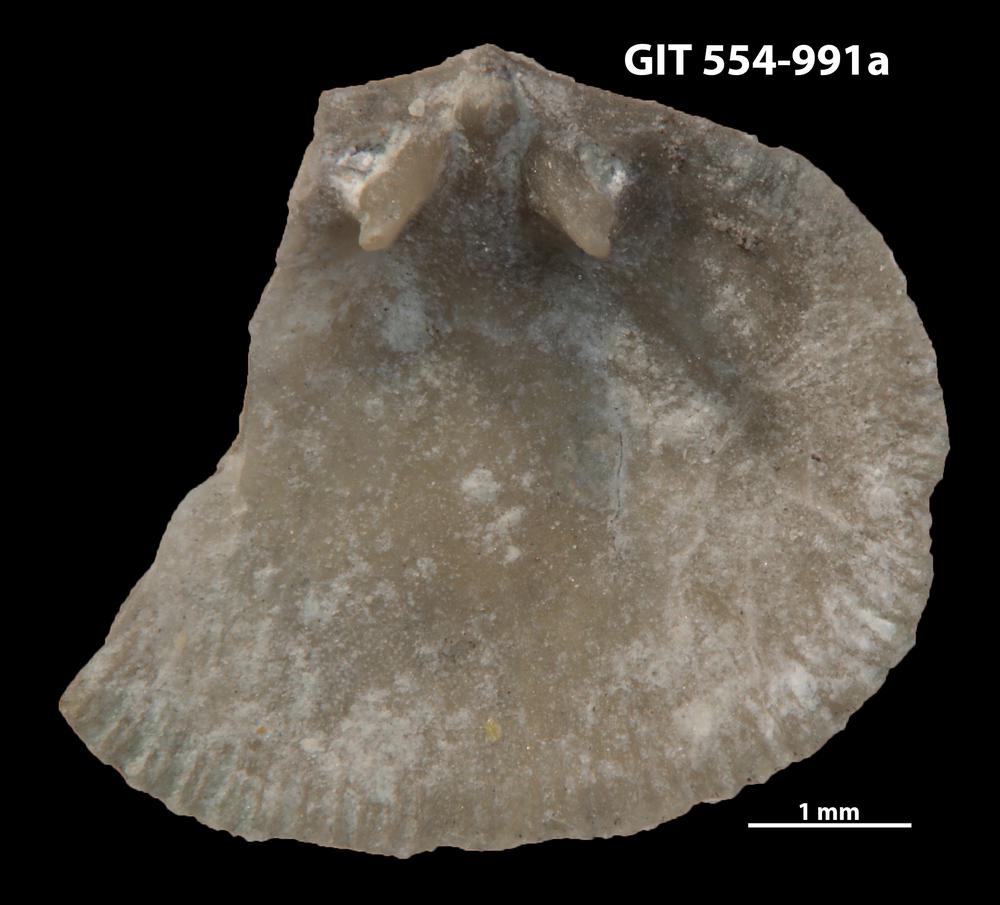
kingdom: Animalia
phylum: Brachiopoda
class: Rhynchonellata
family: Rhipidomellidae
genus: Mendacella
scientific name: Mendacella Orthis hybrida
